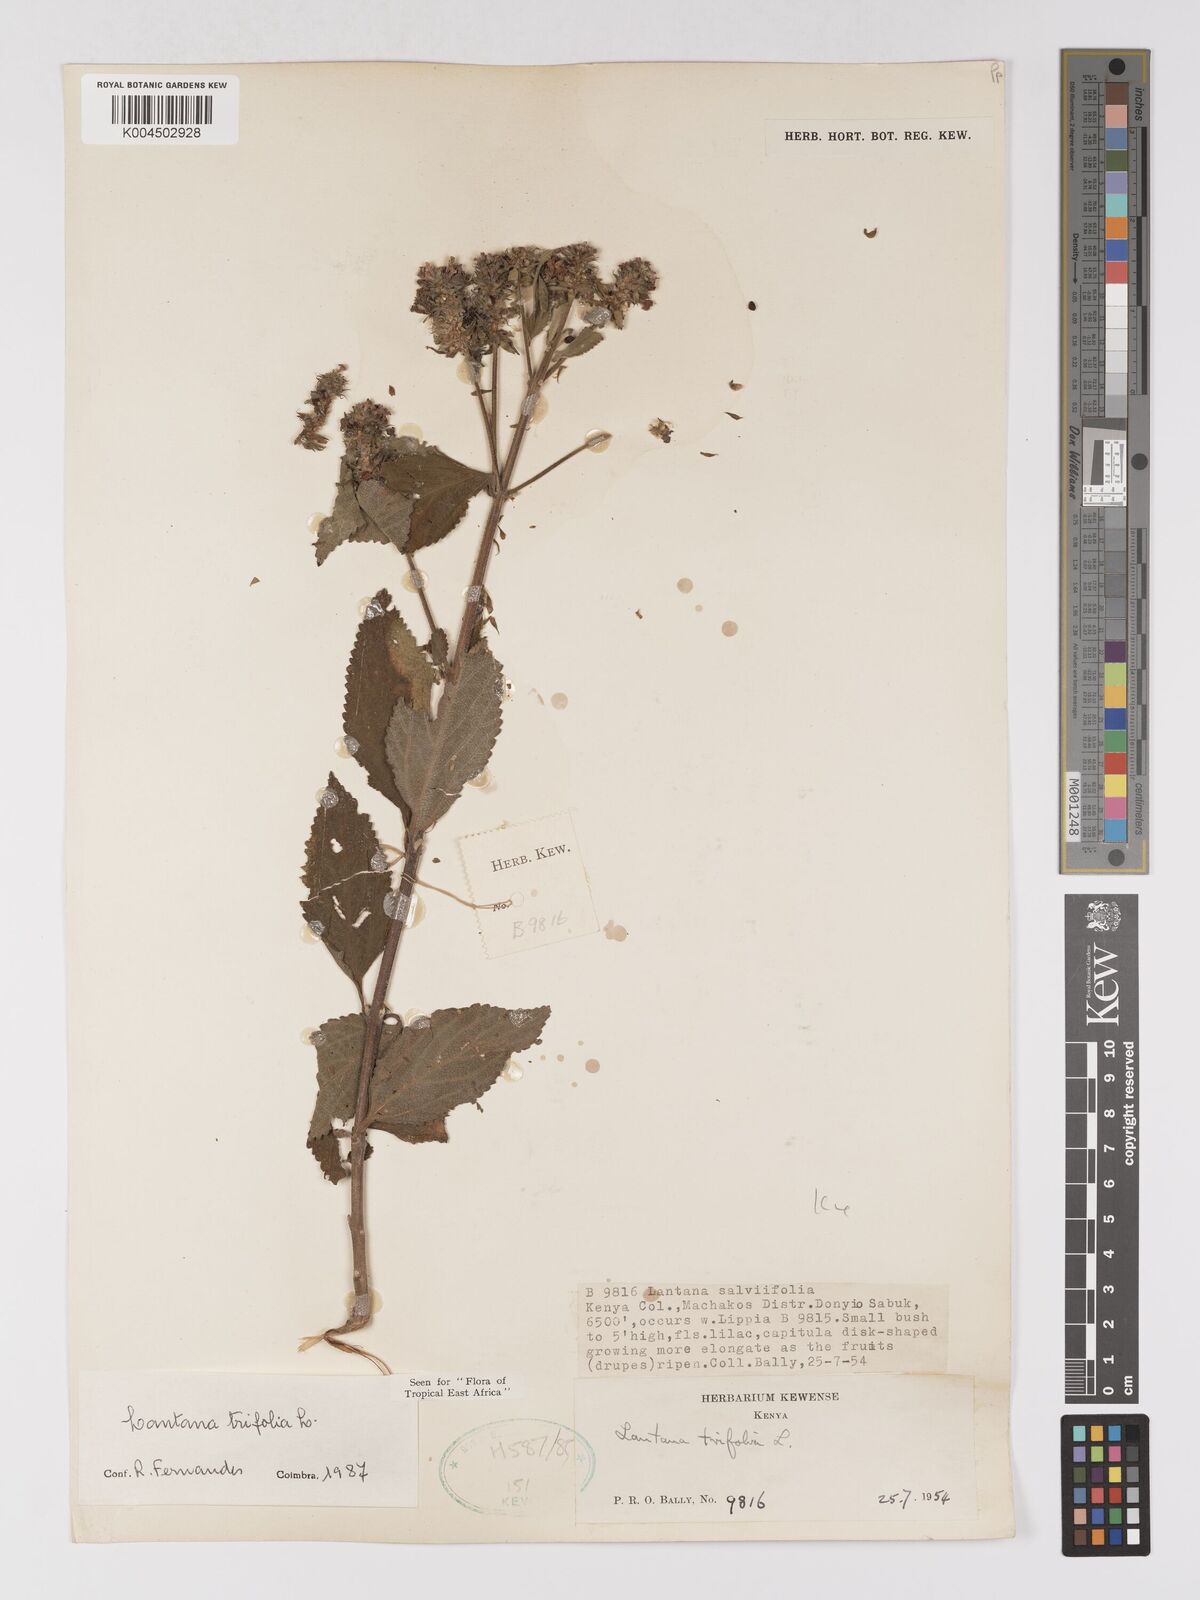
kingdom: Plantae
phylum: Tracheophyta
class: Magnoliopsida
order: Lamiales
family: Verbenaceae
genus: Lantana
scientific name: Lantana trifolia
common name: Sweet-sage
